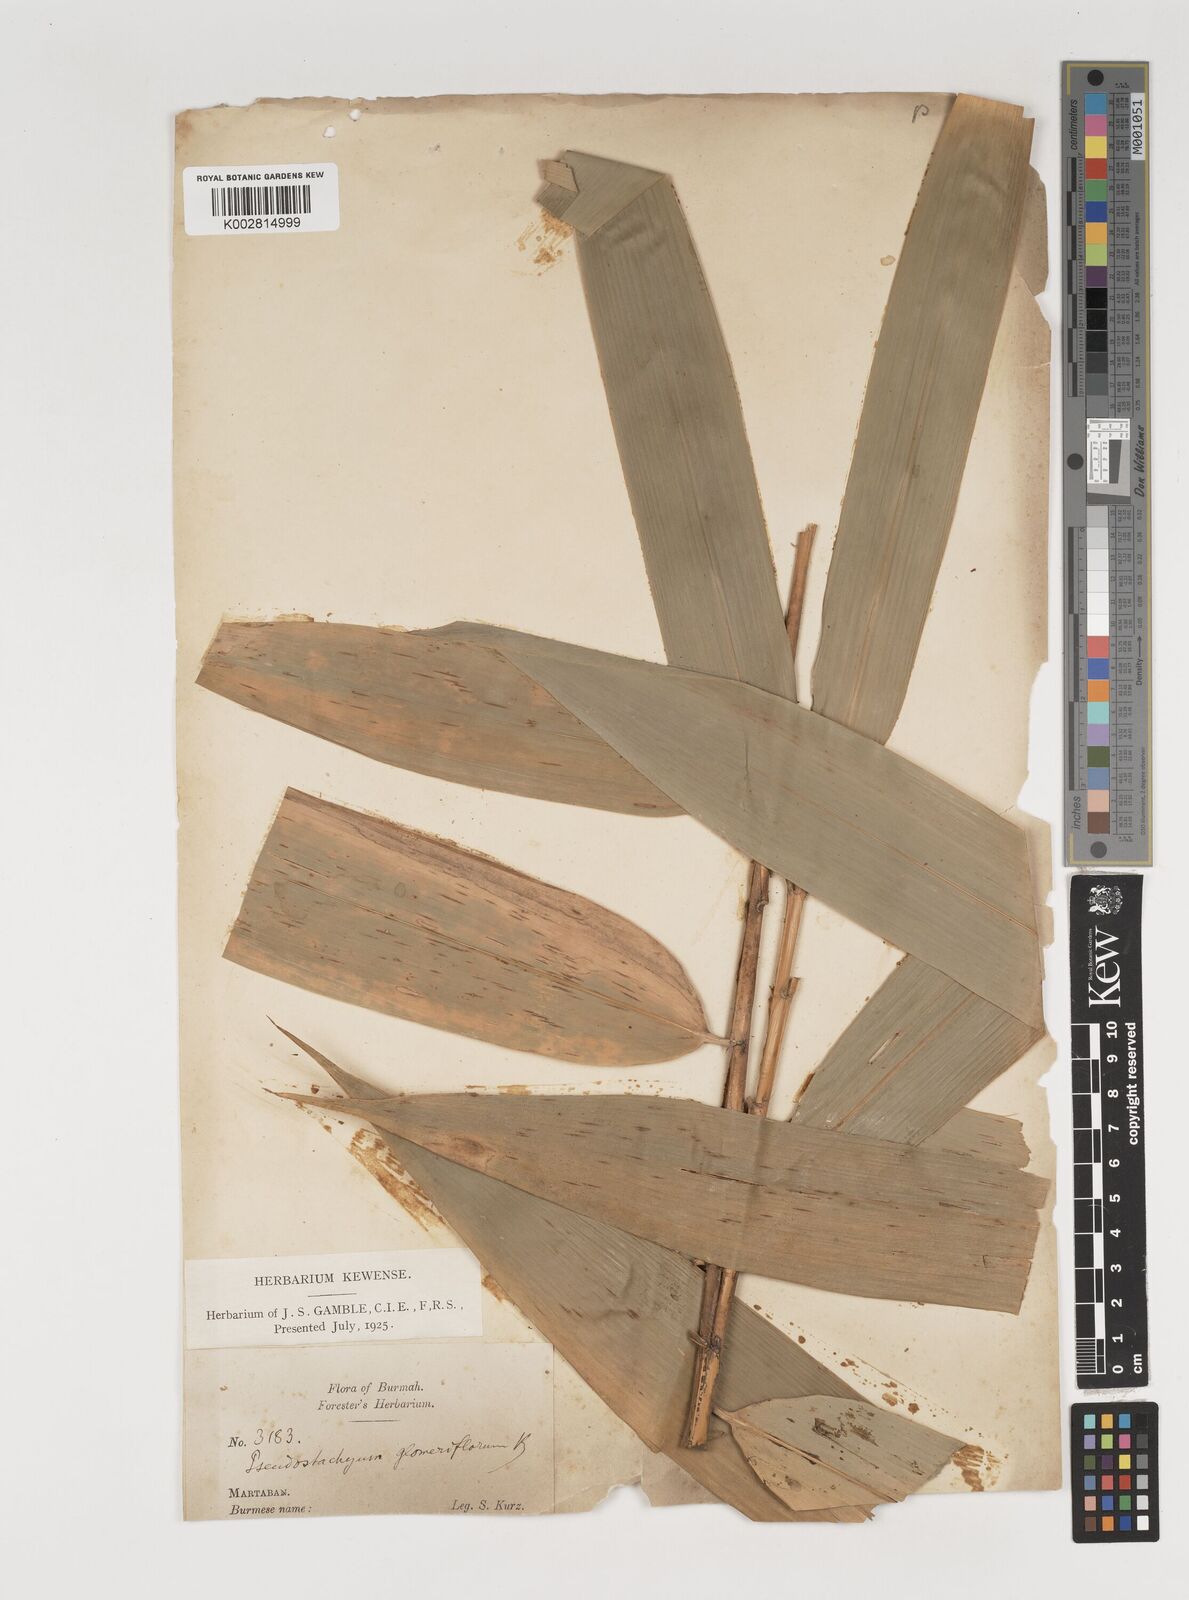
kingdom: Plantae
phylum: Tracheophyta
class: Liliopsida
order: Poales
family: Poaceae
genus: Melocalamus
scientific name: Melocalamus compactiflorus
